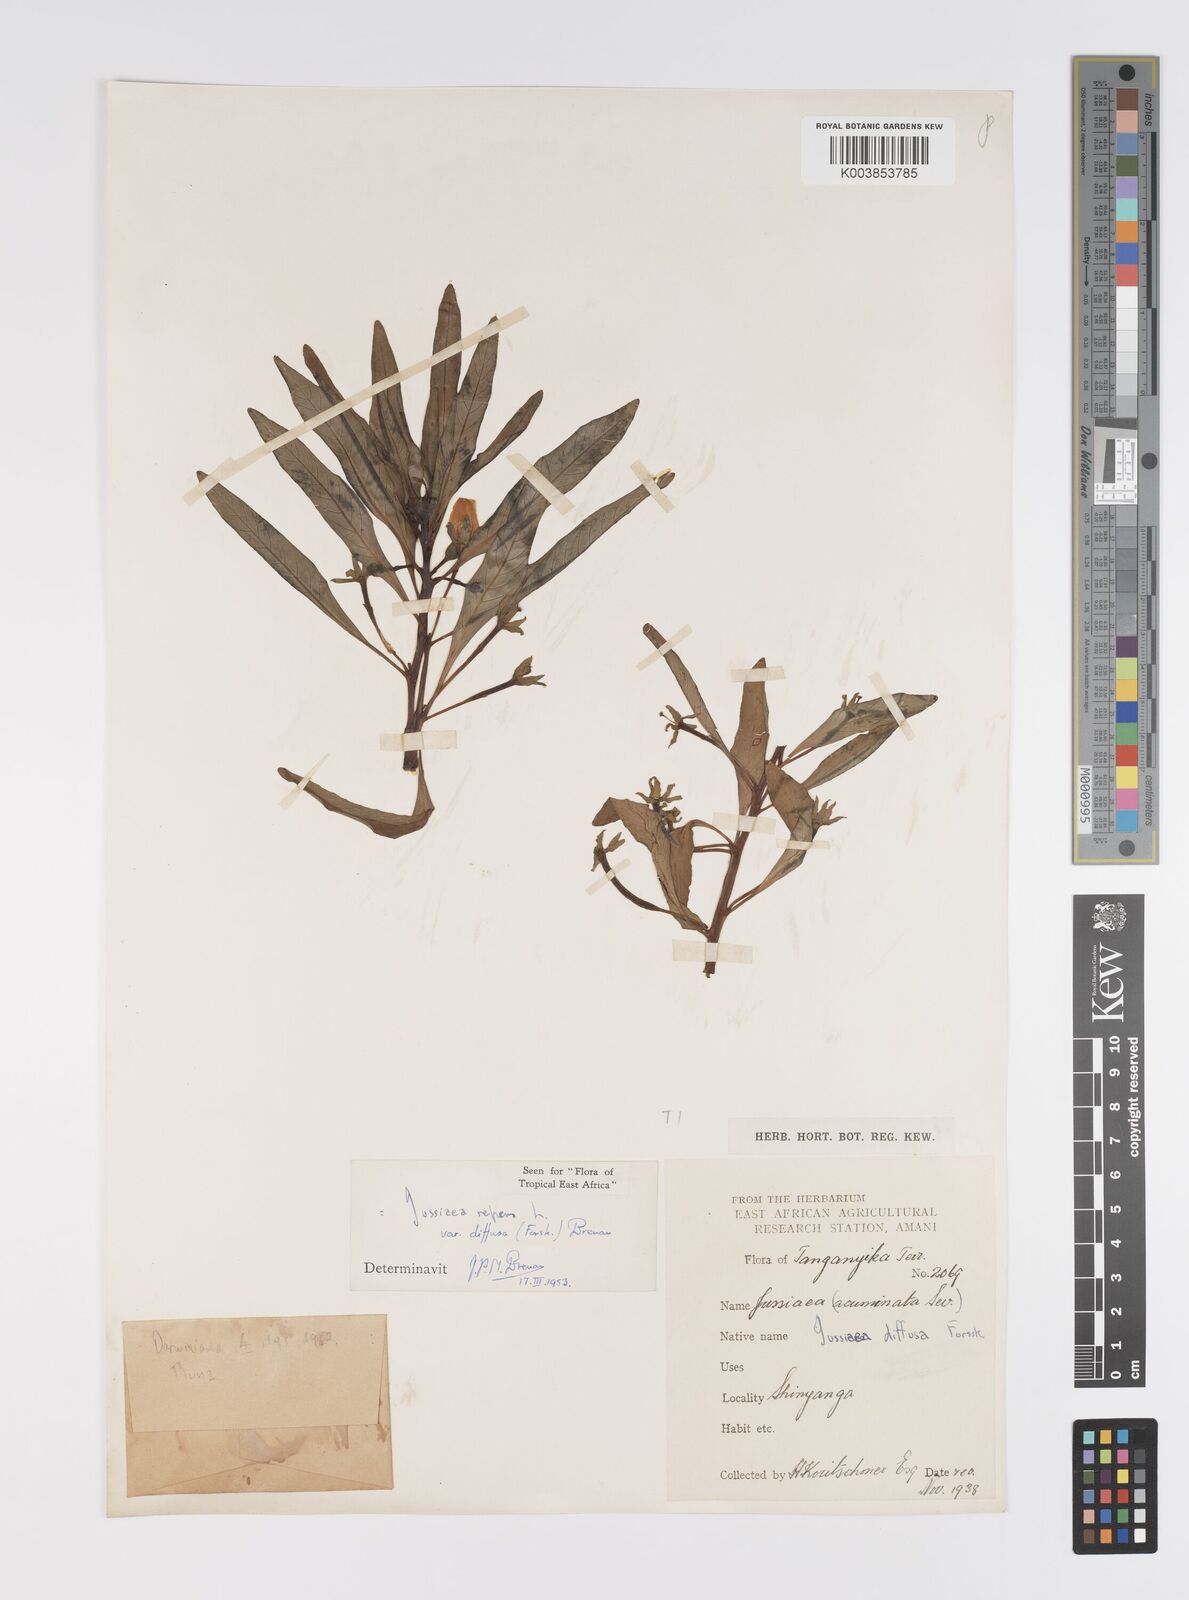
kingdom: Plantae
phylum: Tracheophyta
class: Magnoliopsida
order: Myrtales
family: Onagraceae
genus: Ludwigia
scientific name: Ludwigia repens
